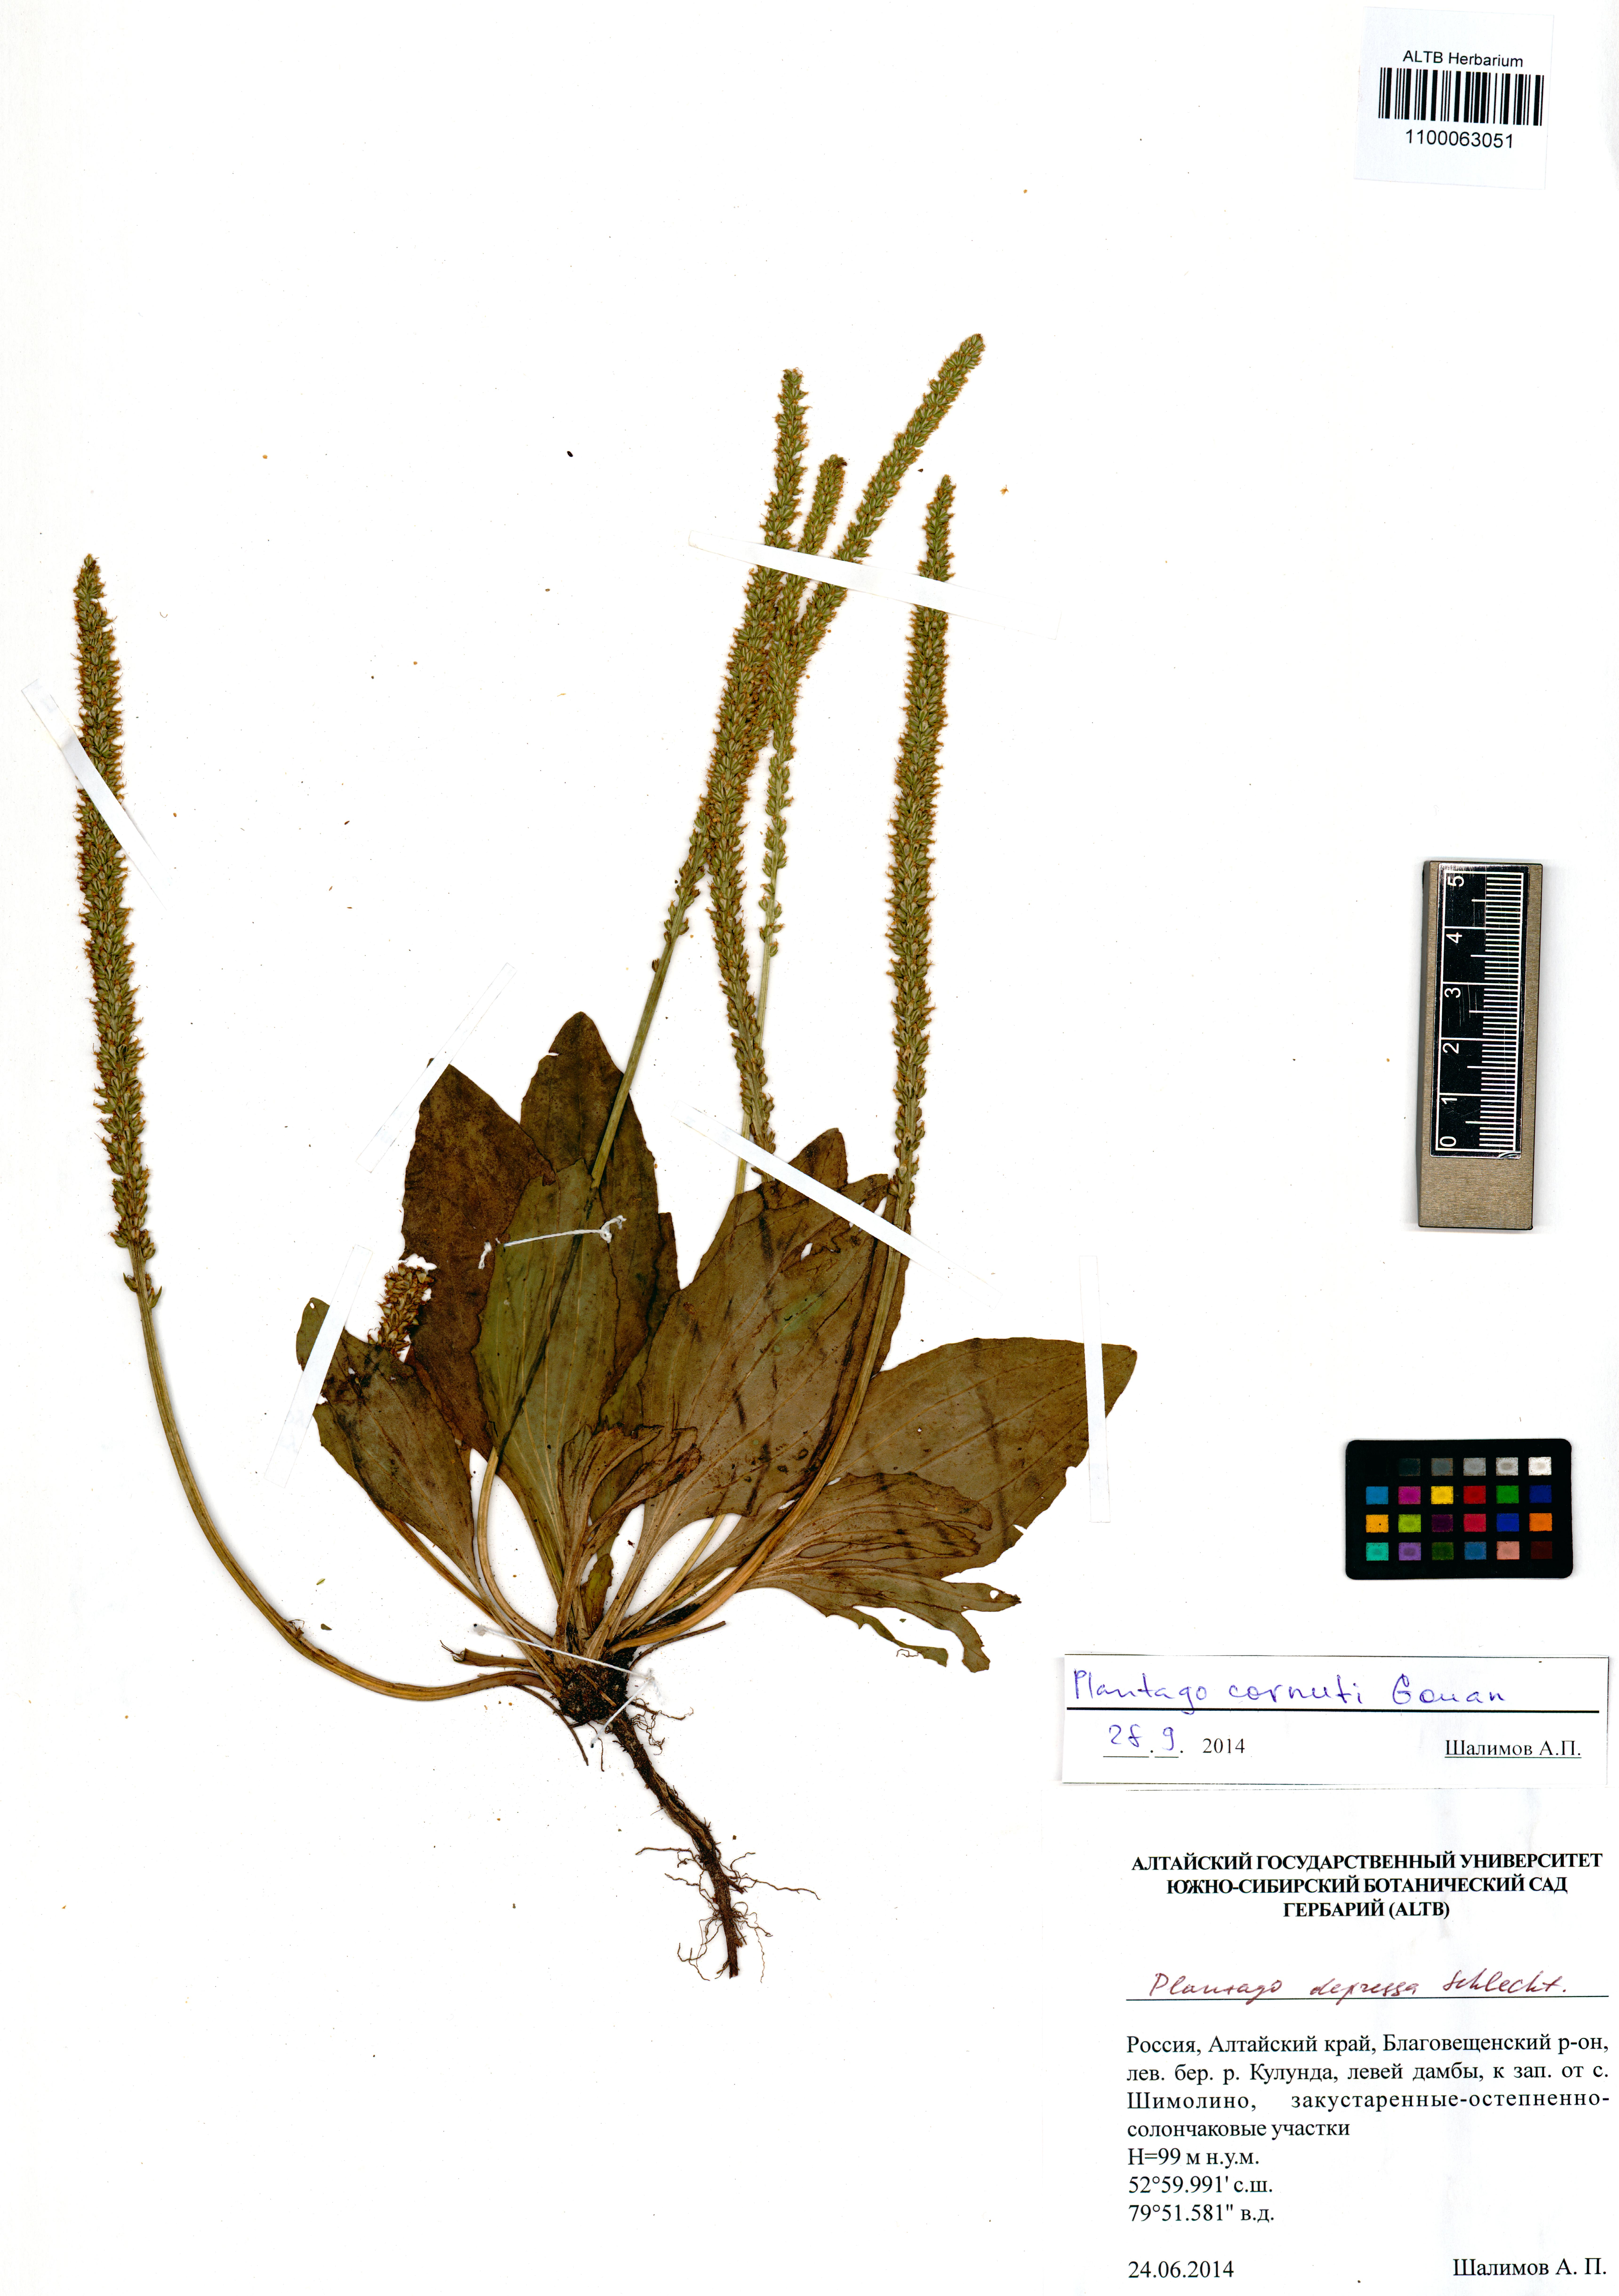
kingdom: Plantae
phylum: Tracheophyta
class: Magnoliopsida
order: Lamiales
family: Plantaginaceae
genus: Plantago
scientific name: Plantago cornuti
